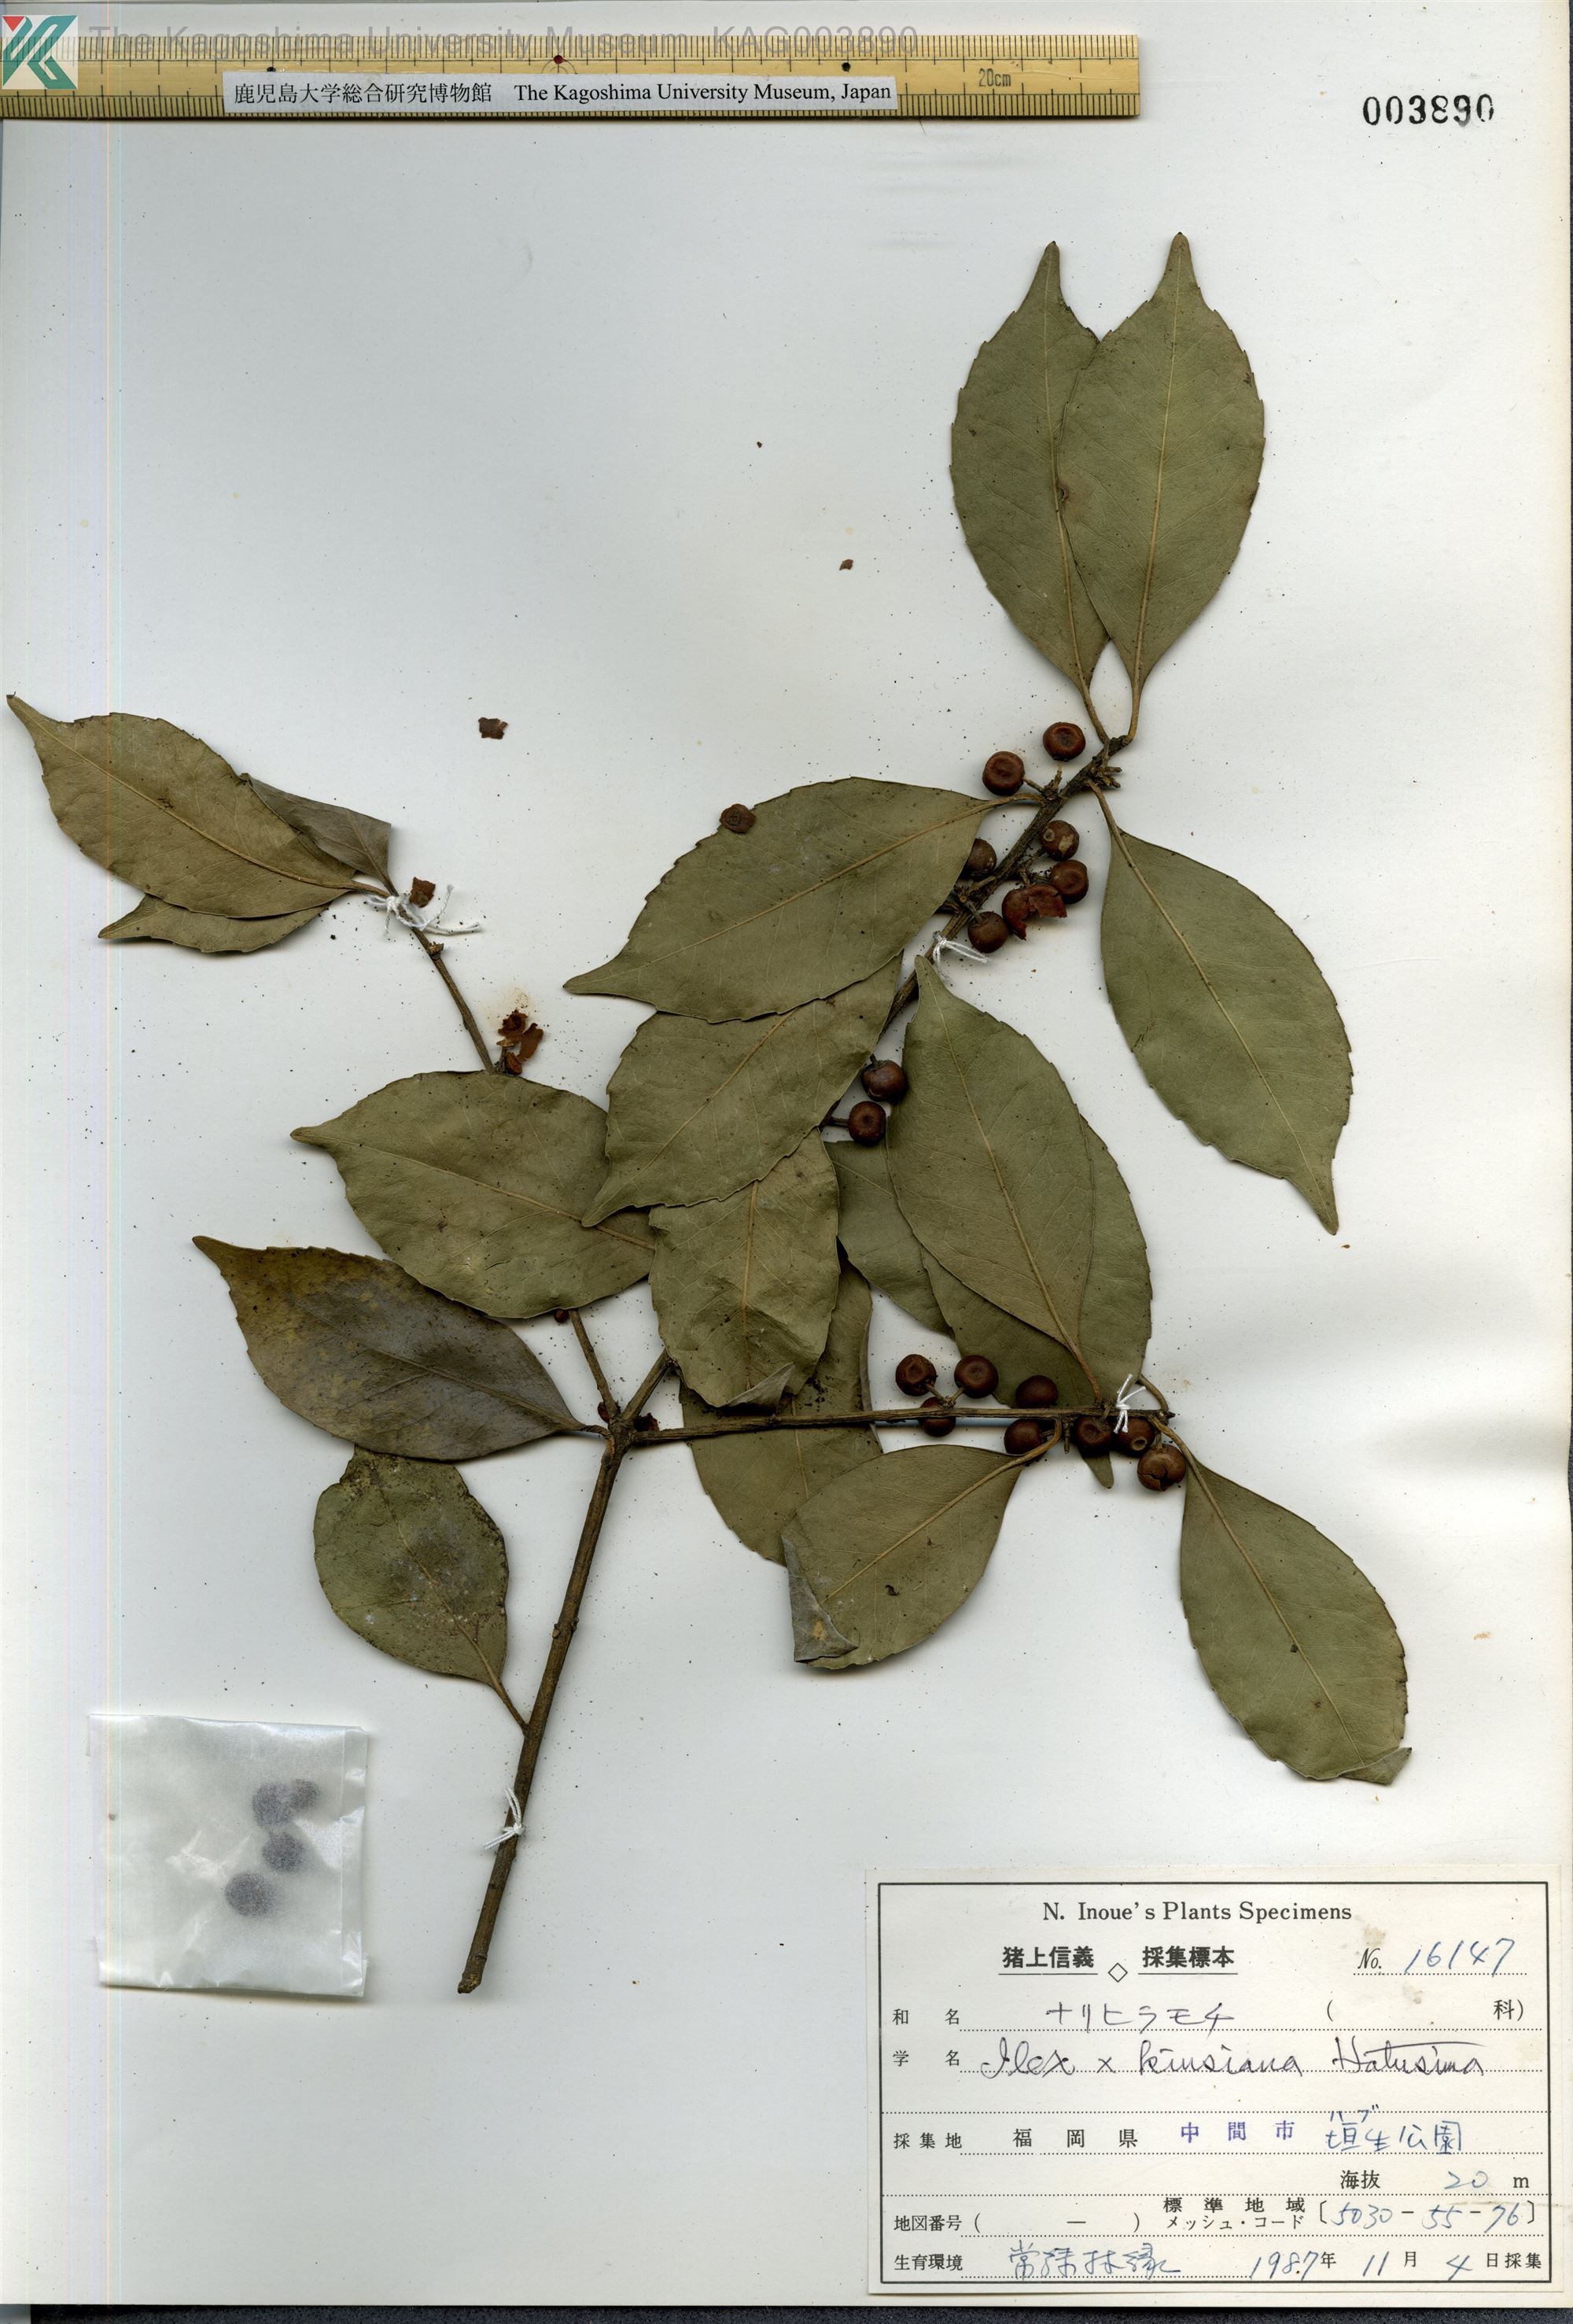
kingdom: Plantae
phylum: Tracheophyta
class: Magnoliopsida
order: Aquifoliales
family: Aquifoliaceae
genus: Ilex
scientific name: Ilex kiusiana
